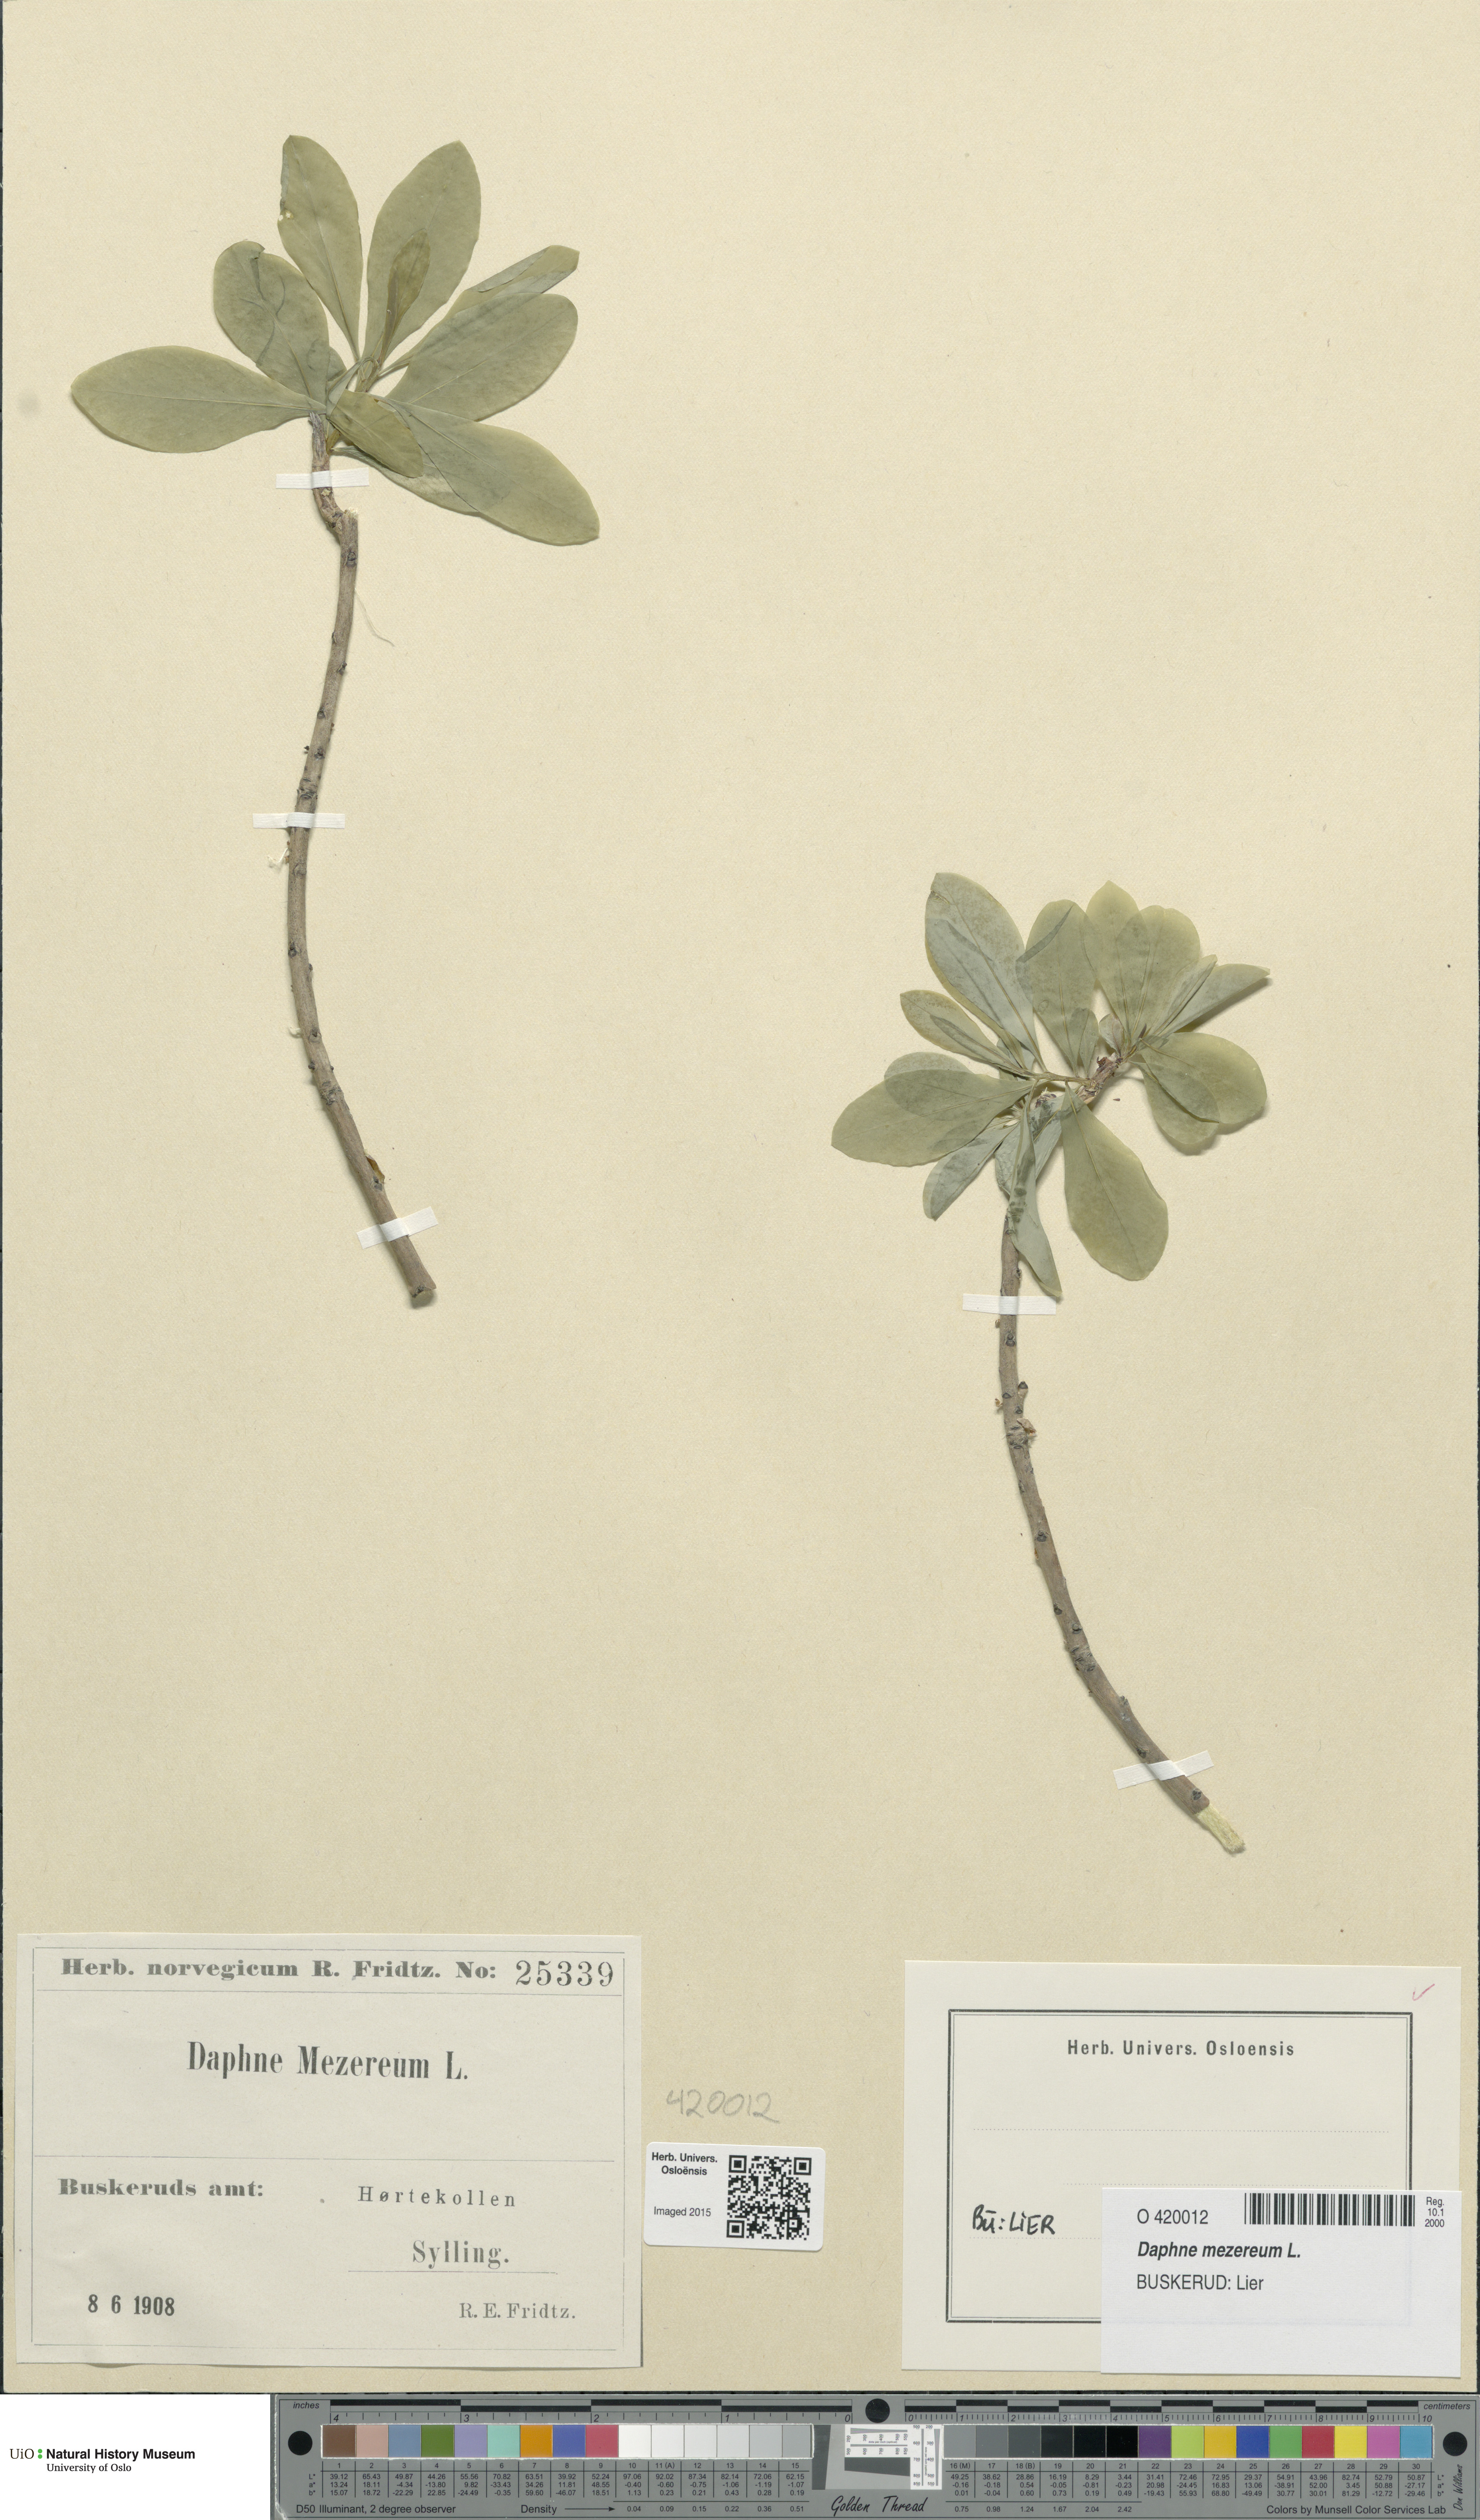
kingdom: Plantae
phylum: Tracheophyta
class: Magnoliopsida
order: Malvales
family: Thymelaeaceae
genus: Daphne
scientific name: Daphne mezereum
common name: Mezereon
